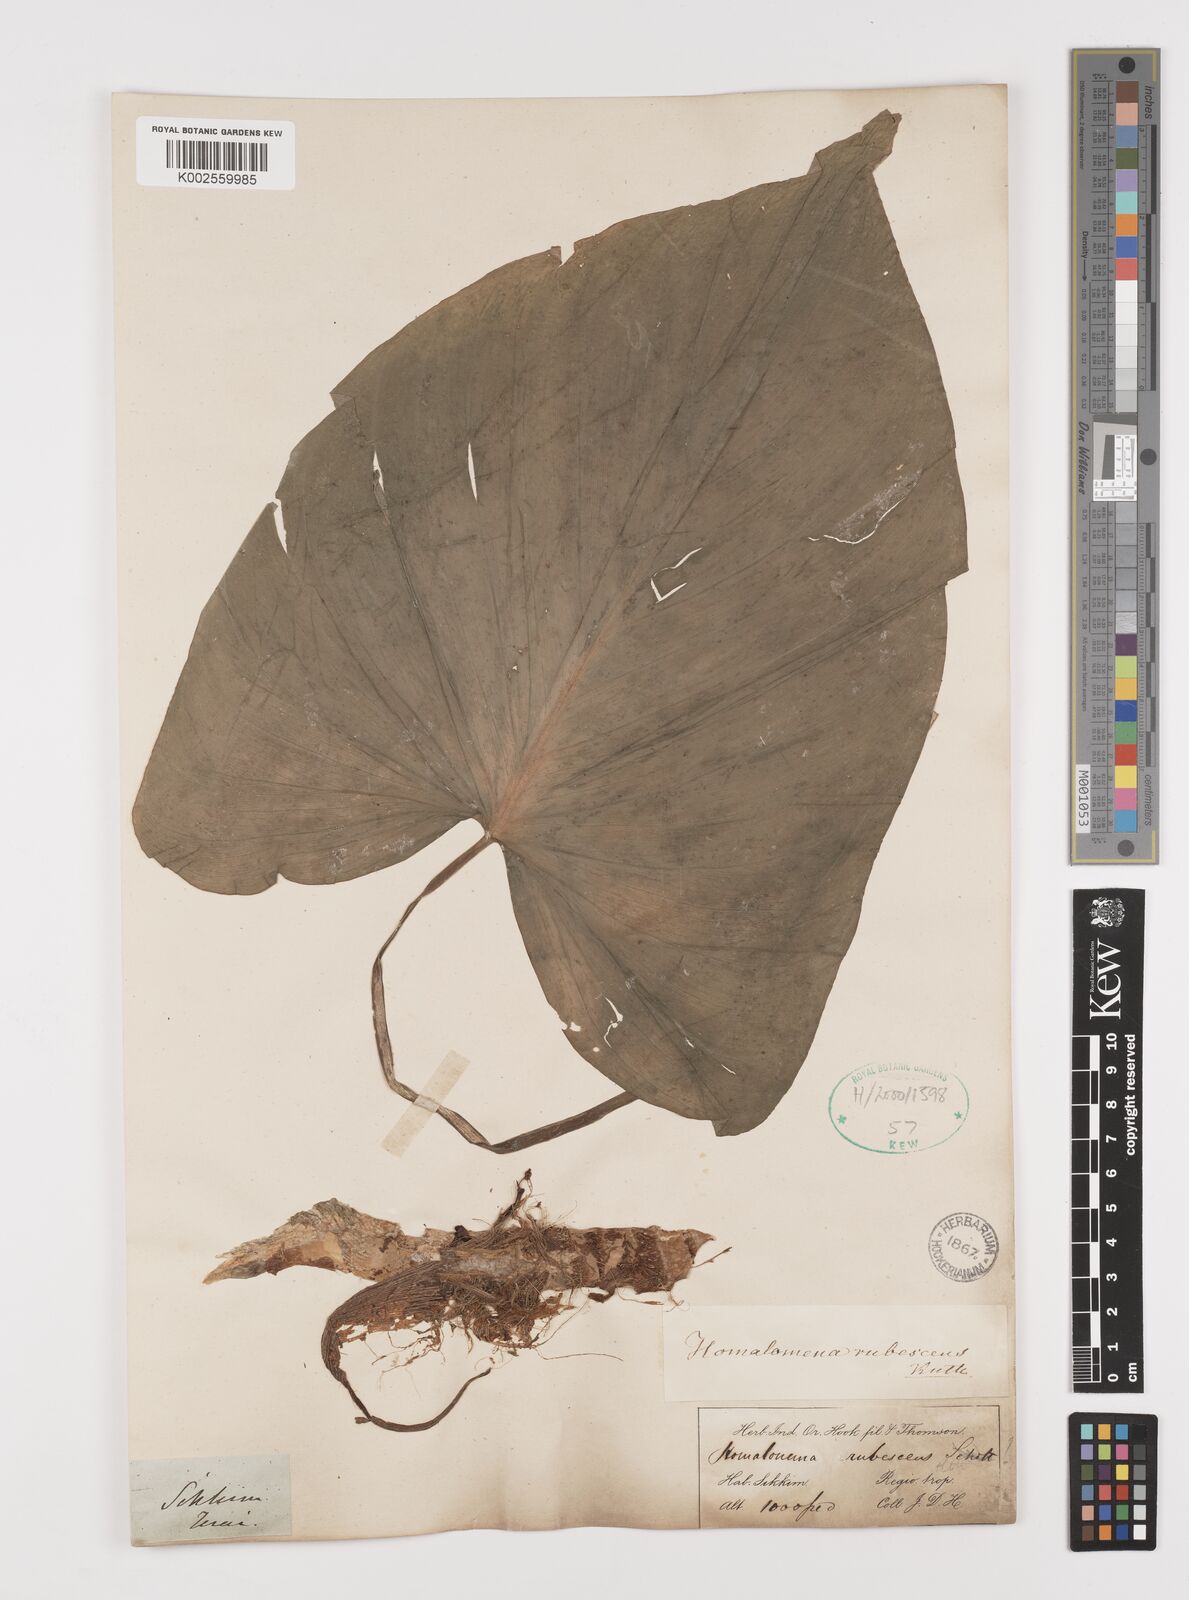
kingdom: Plantae
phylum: Tracheophyta
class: Liliopsida
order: Alismatales
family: Araceae
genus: Homalomena
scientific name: Homalomena rubescens
